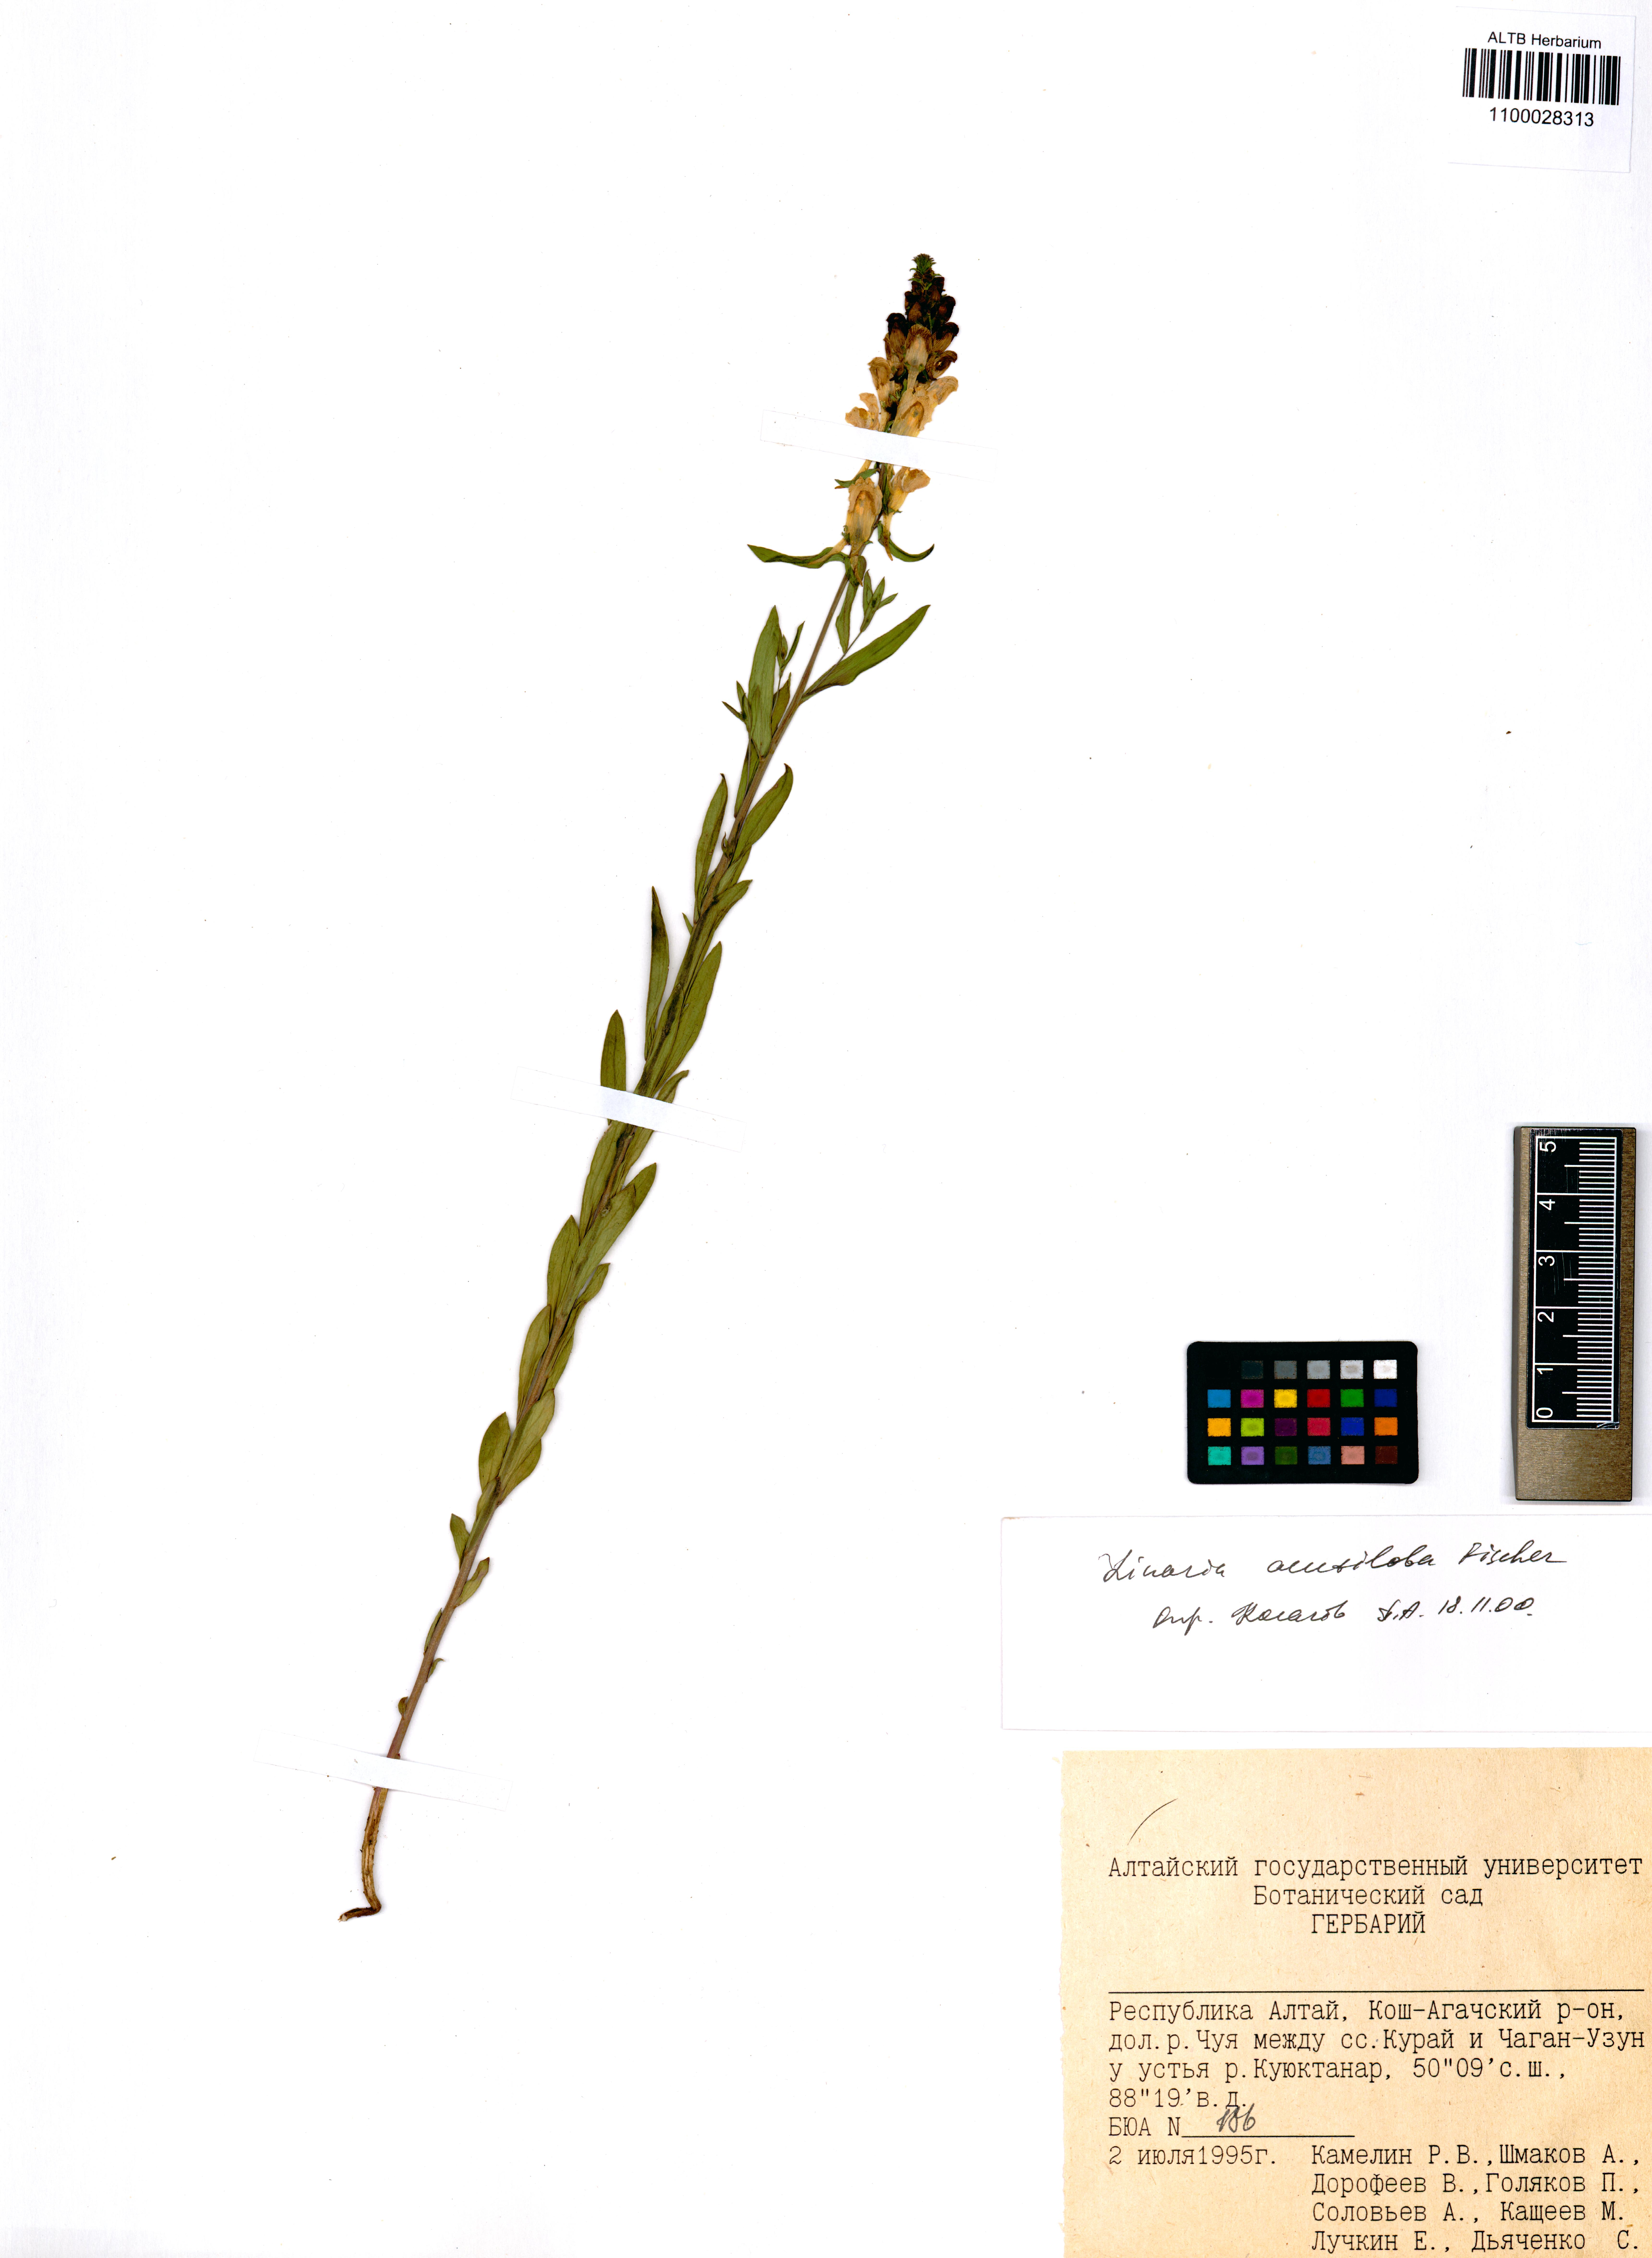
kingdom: Plantae
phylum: Tracheophyta
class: Magnoliopsida
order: Lamiales
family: Plantaginaceae
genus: Linaria
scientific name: Linaria acutiloba
